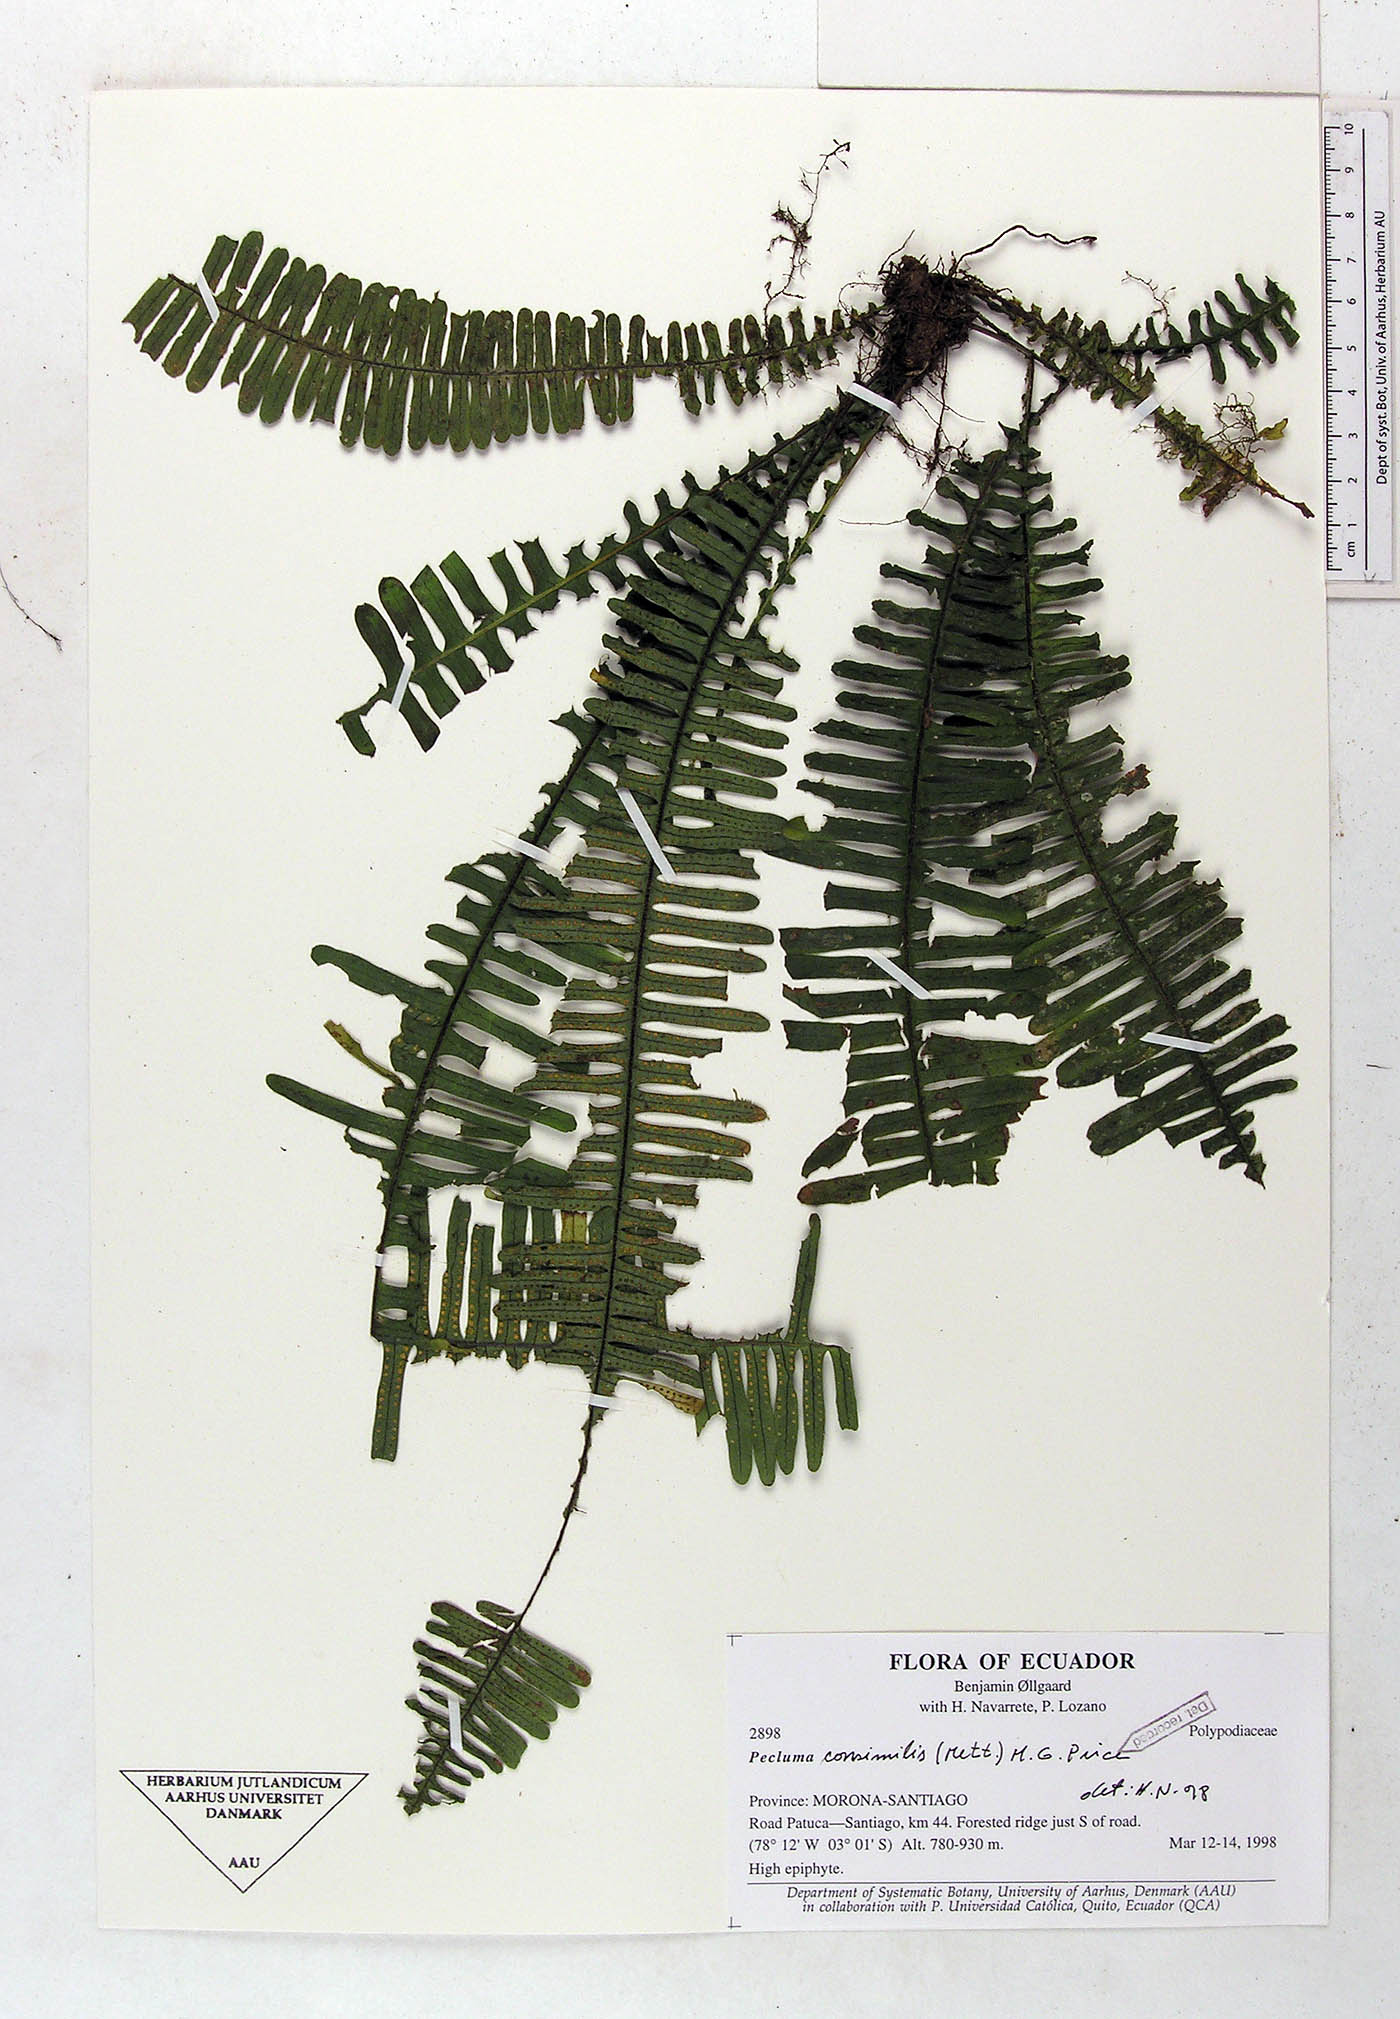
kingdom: Plantae
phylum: Tracheophyta
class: Polypodiopsida
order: Polypodiales
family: Polypodiaceae
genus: Pecluma
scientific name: Pecluma consimilis
